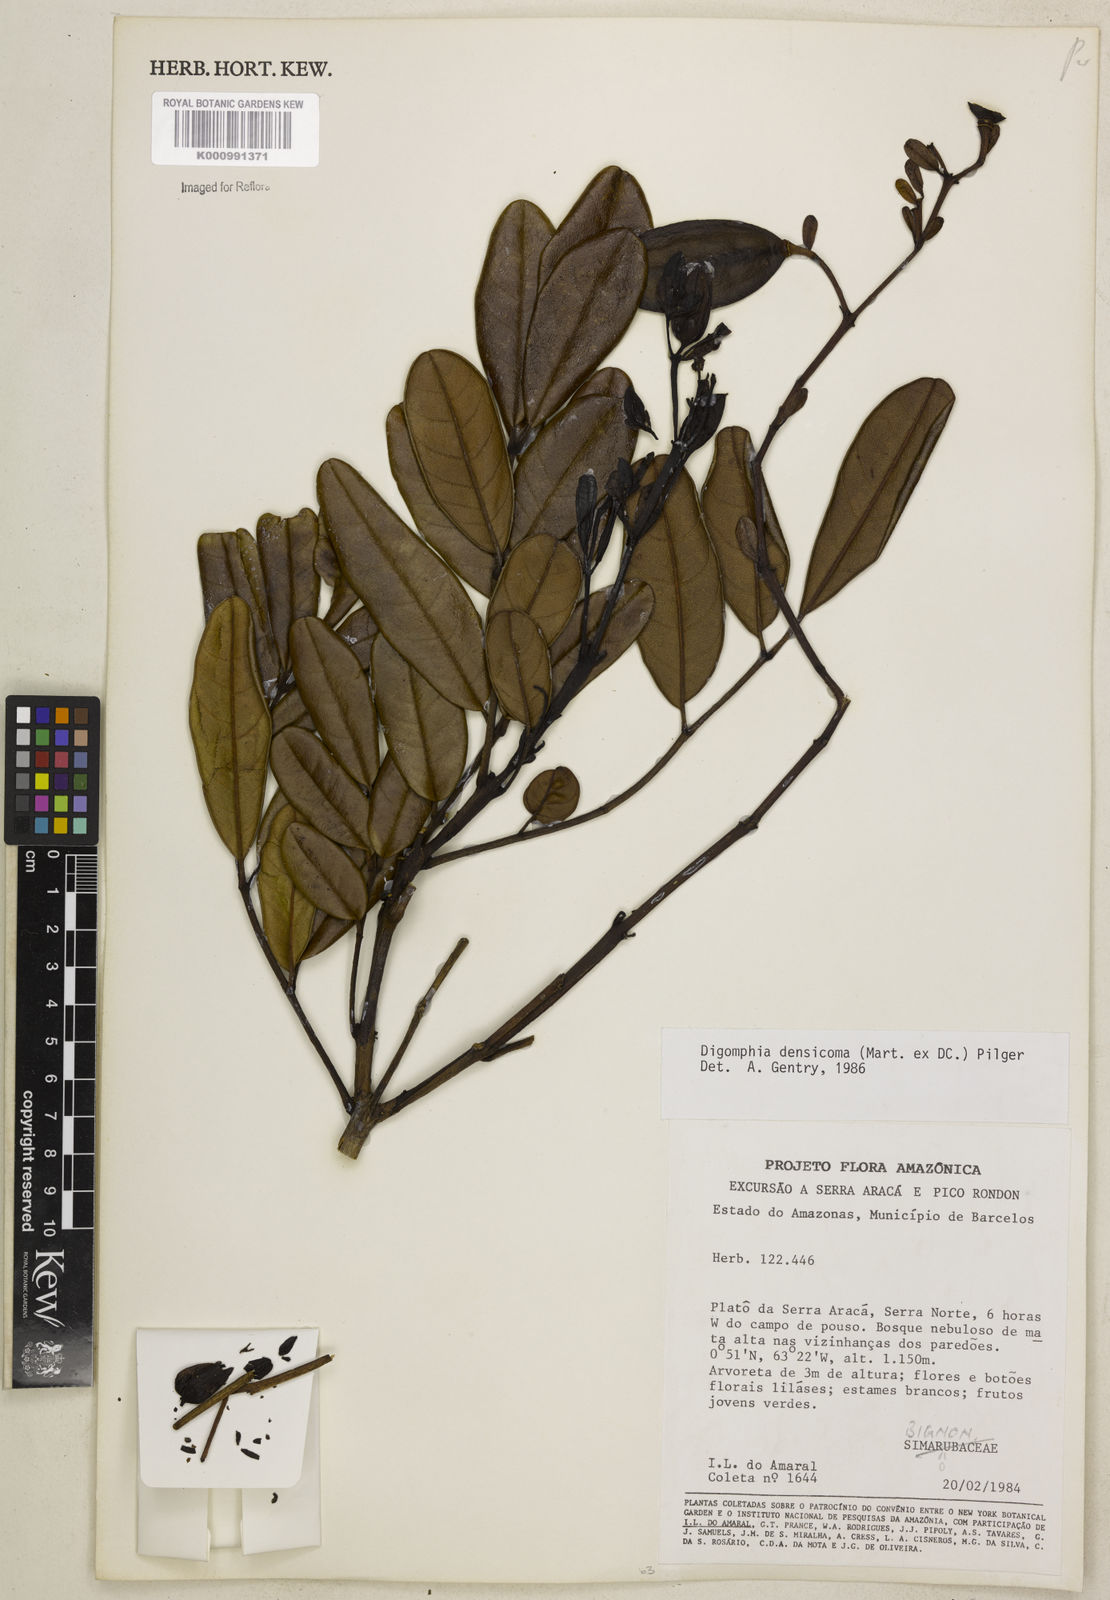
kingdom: Plantae
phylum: Tracheophyta
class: Magnoliopsida
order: Lamiales
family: Bignoniaceae
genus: Digomphia
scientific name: Digomphia densicoma
